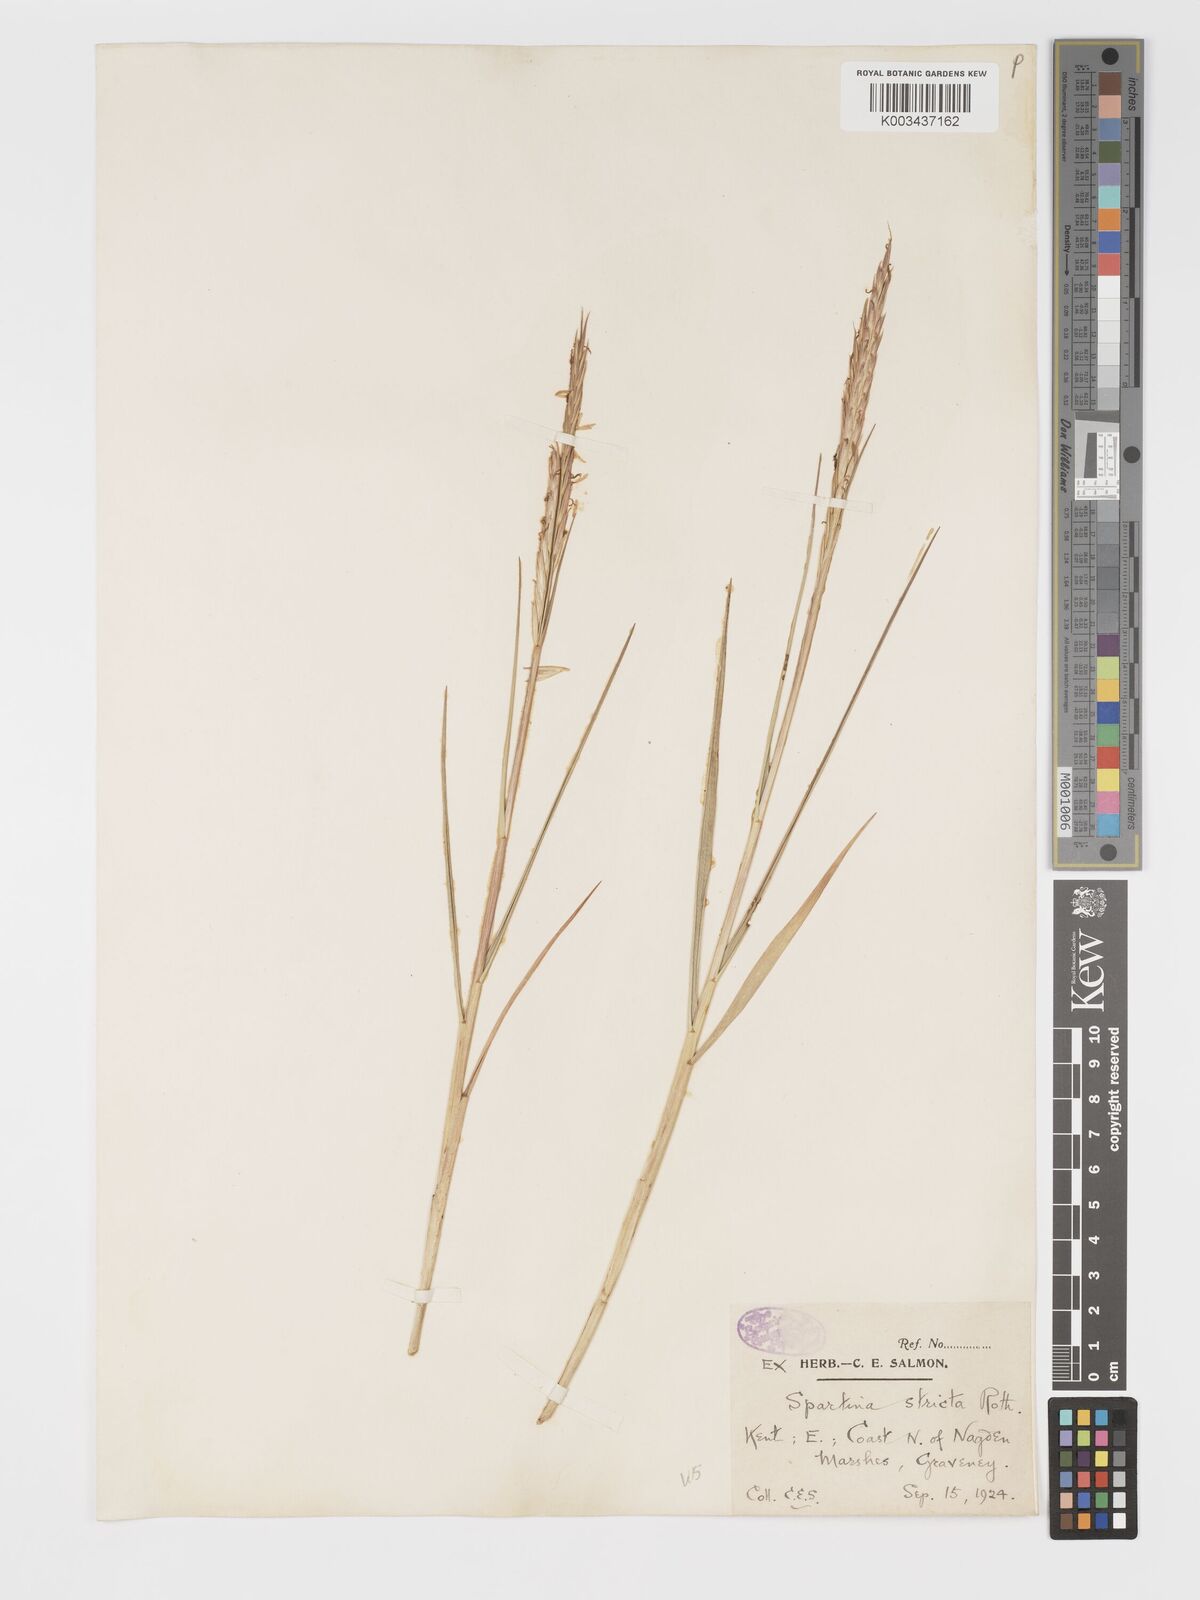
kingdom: Plantae
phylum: Tracheophyta
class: Liliopsida
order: Poales
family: Poaceae
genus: Sporobolus
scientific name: Sporobolus maritimus
